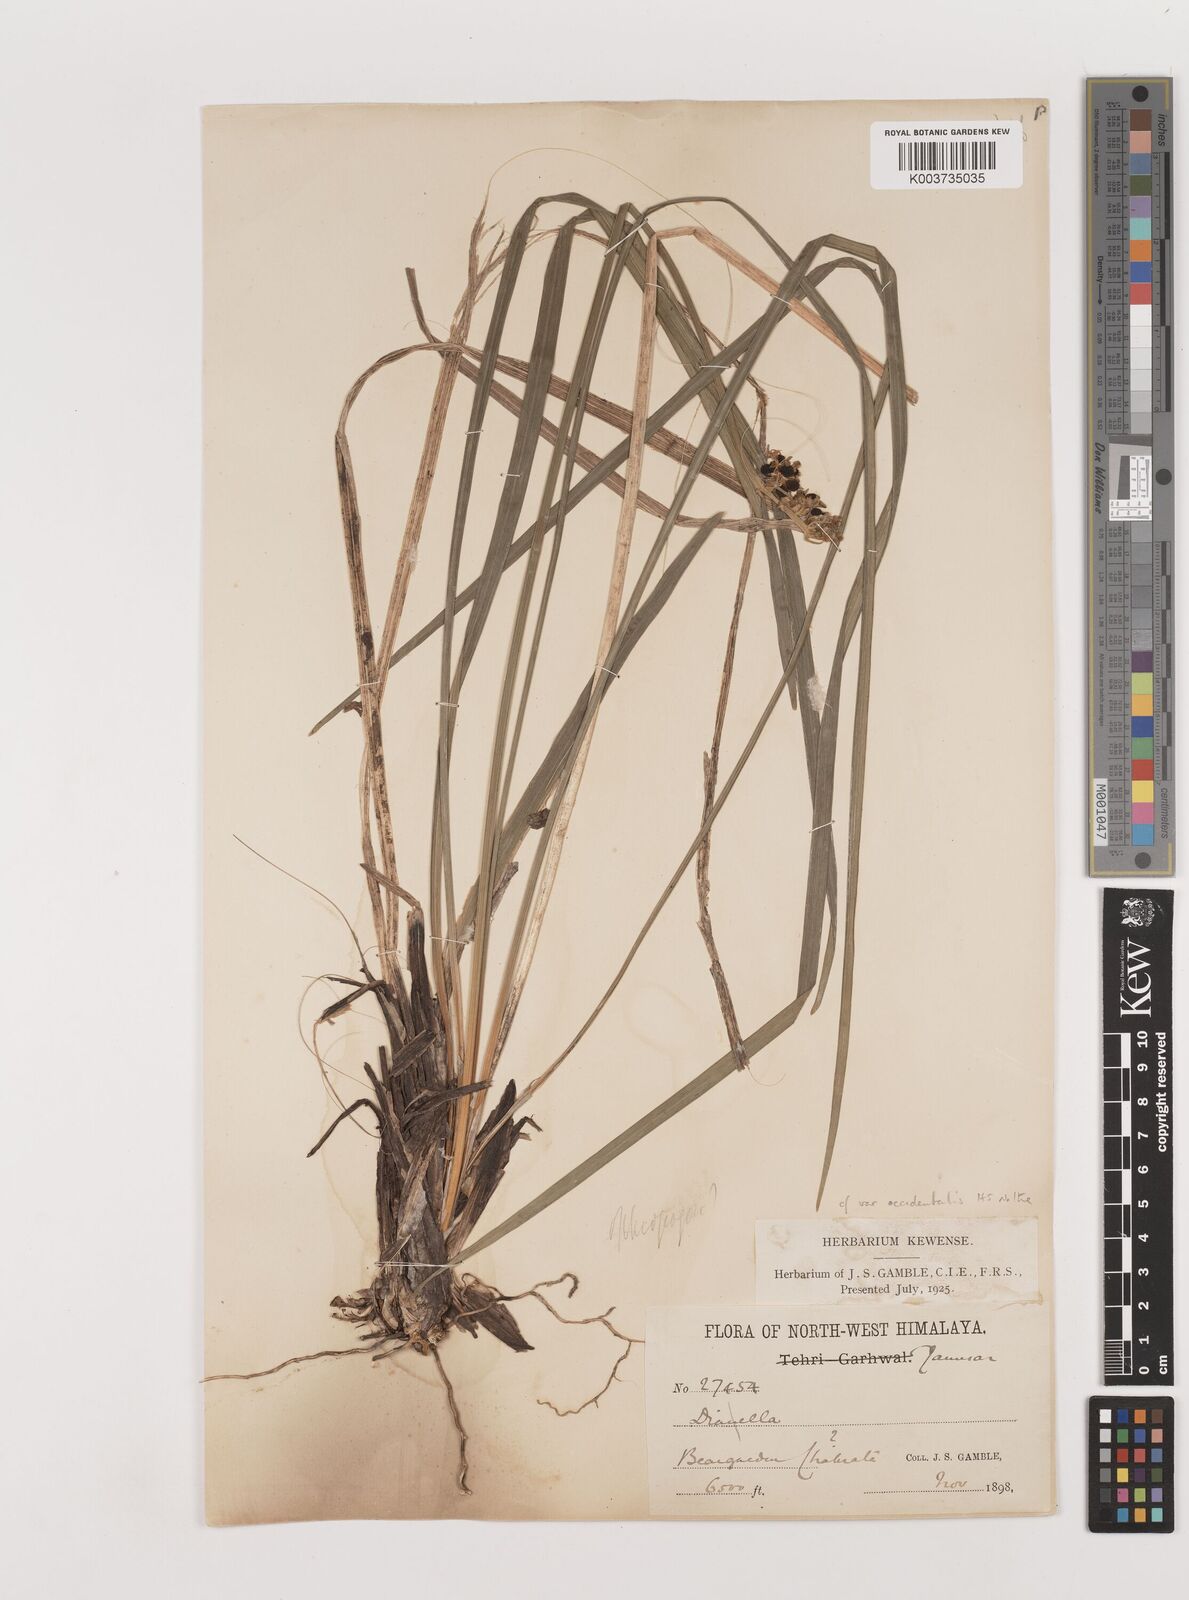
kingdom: Plantae
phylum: Tracheophyta
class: Liliopsida
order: Asparagales
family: Asparagaceae
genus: Ophiopogon
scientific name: Ophiopogon intermedius
